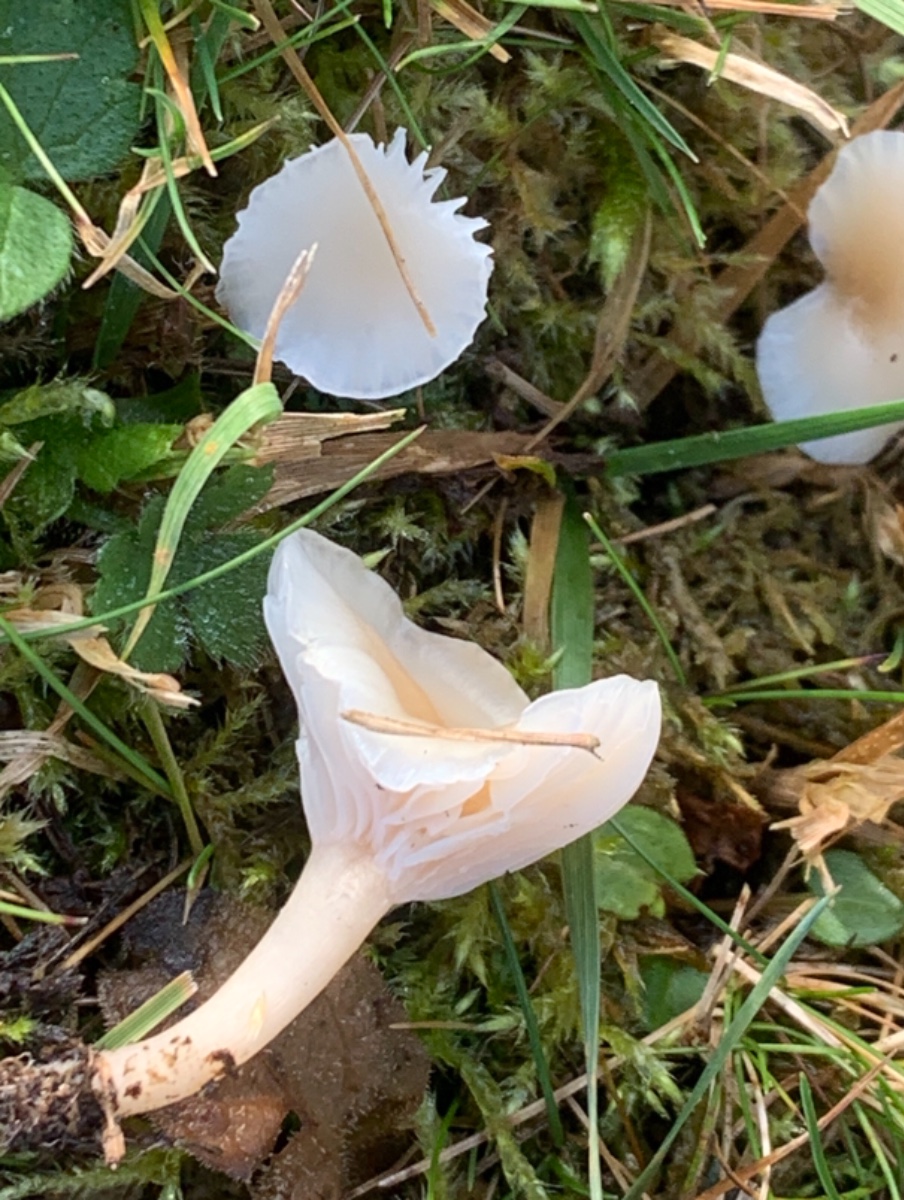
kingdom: Fungi
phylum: Basidiomycota
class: Agaricomycetes
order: Agaricales
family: Hygrophoraceae
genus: Cuphophyllus
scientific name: Cuphophyllus
